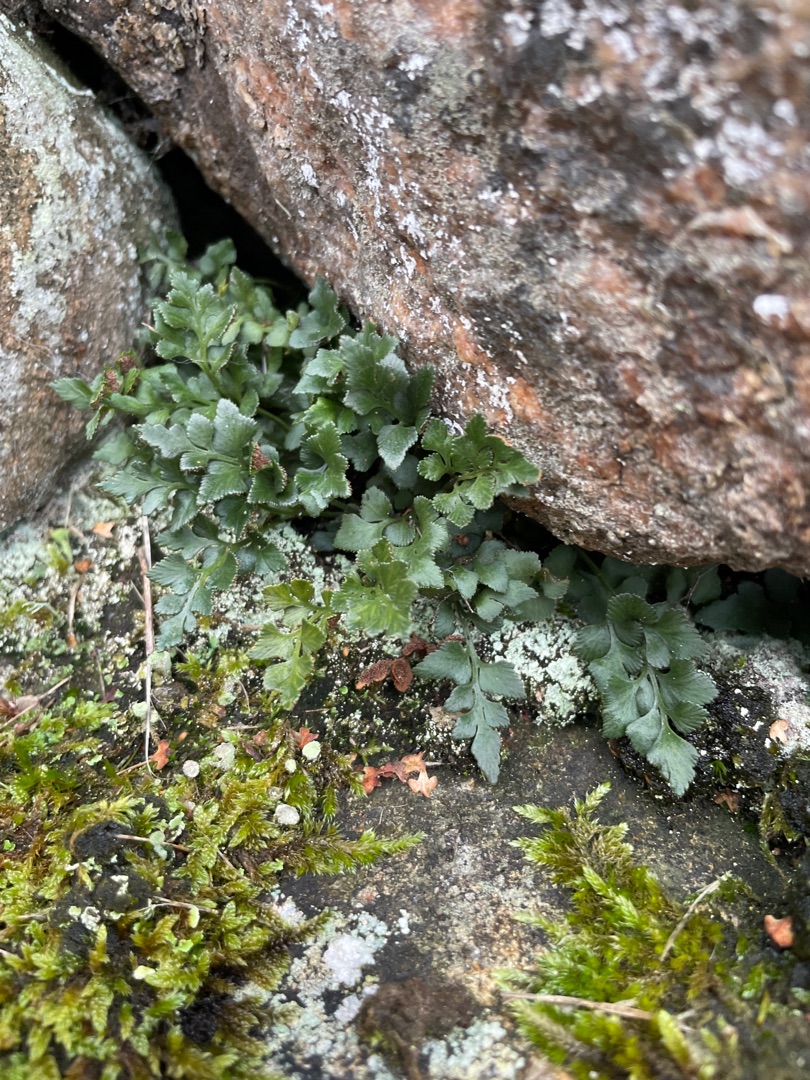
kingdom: Plantae
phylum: Tracheophyta
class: Polypodiopsida
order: Polypodiales
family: Aspleniaceae
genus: Asplenium
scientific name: Asplenium ruta-muraria
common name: Murrude
